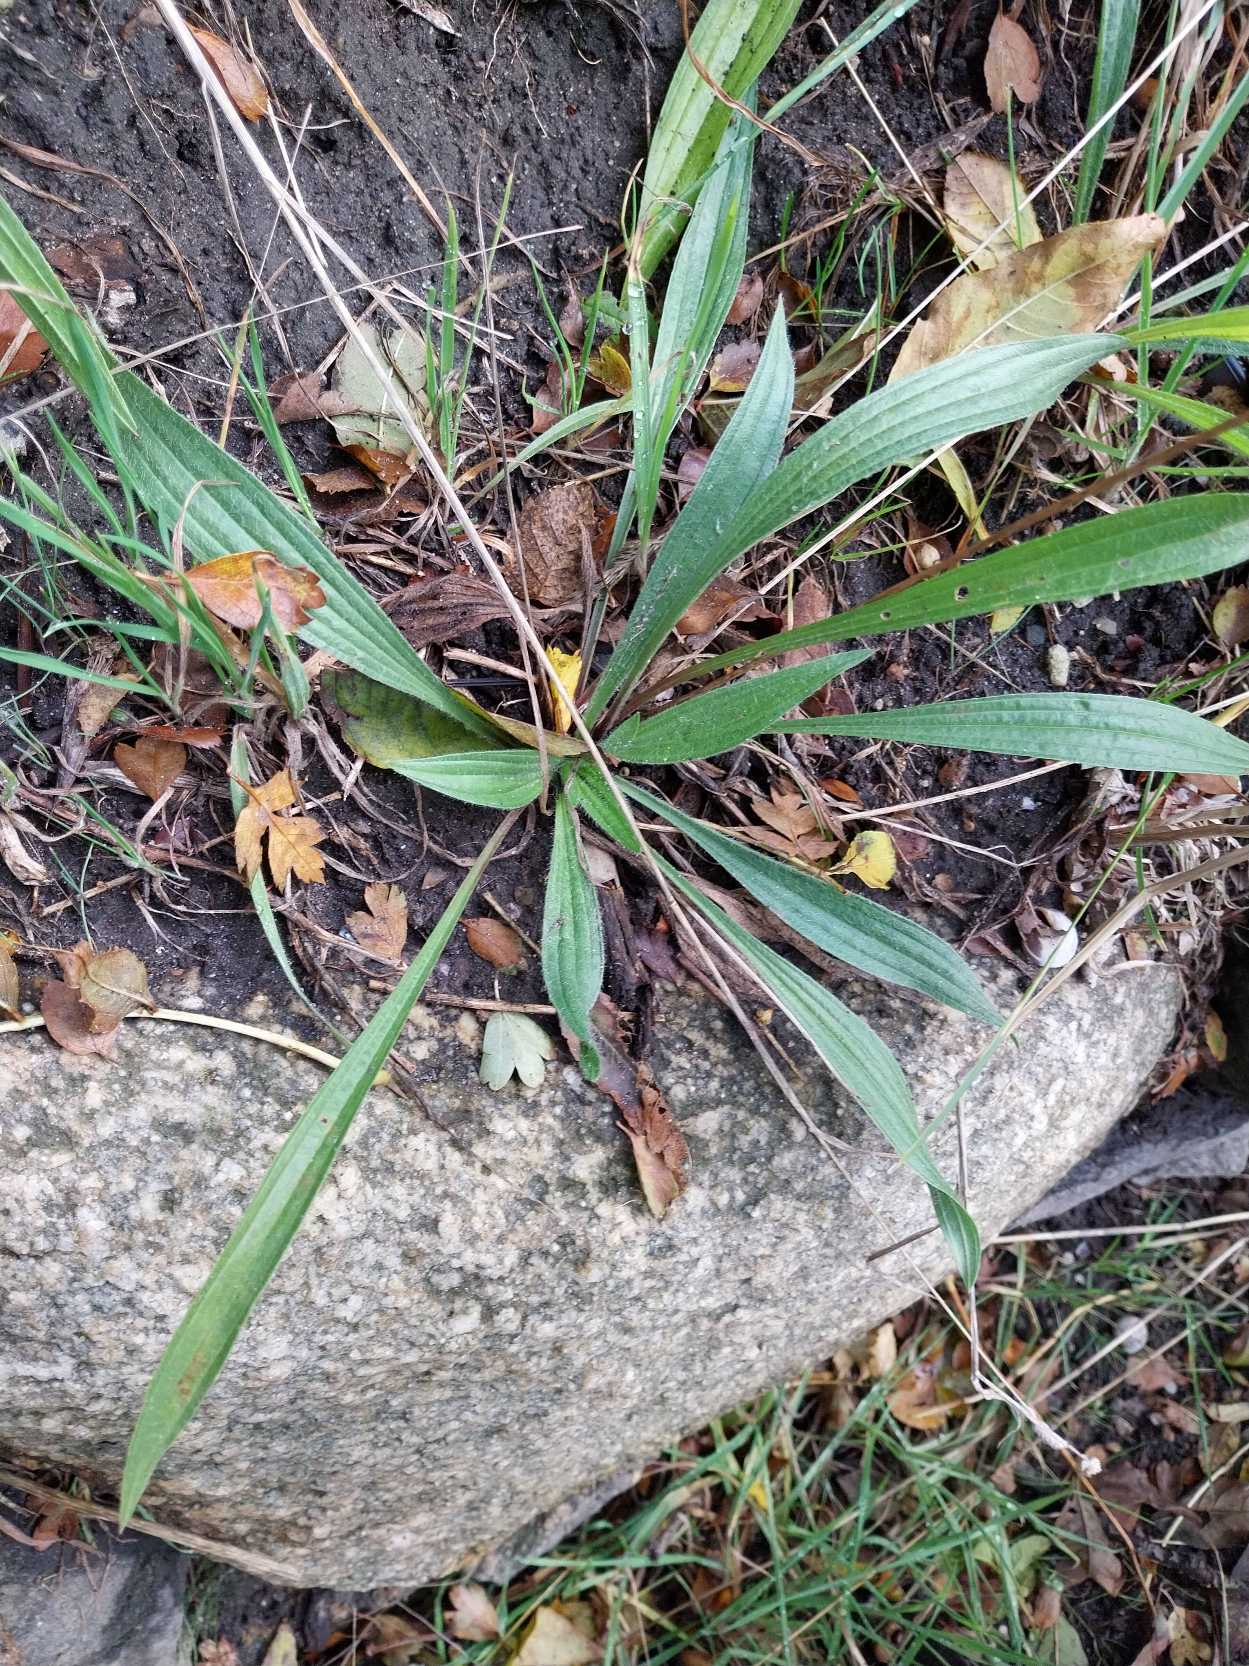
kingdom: Plantae
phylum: Tracheophyta
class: Magnoliopsida
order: Lamiales
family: Plantaginaceae
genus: Plantago
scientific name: Plantago lanceolata
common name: Lancet-vejbred
